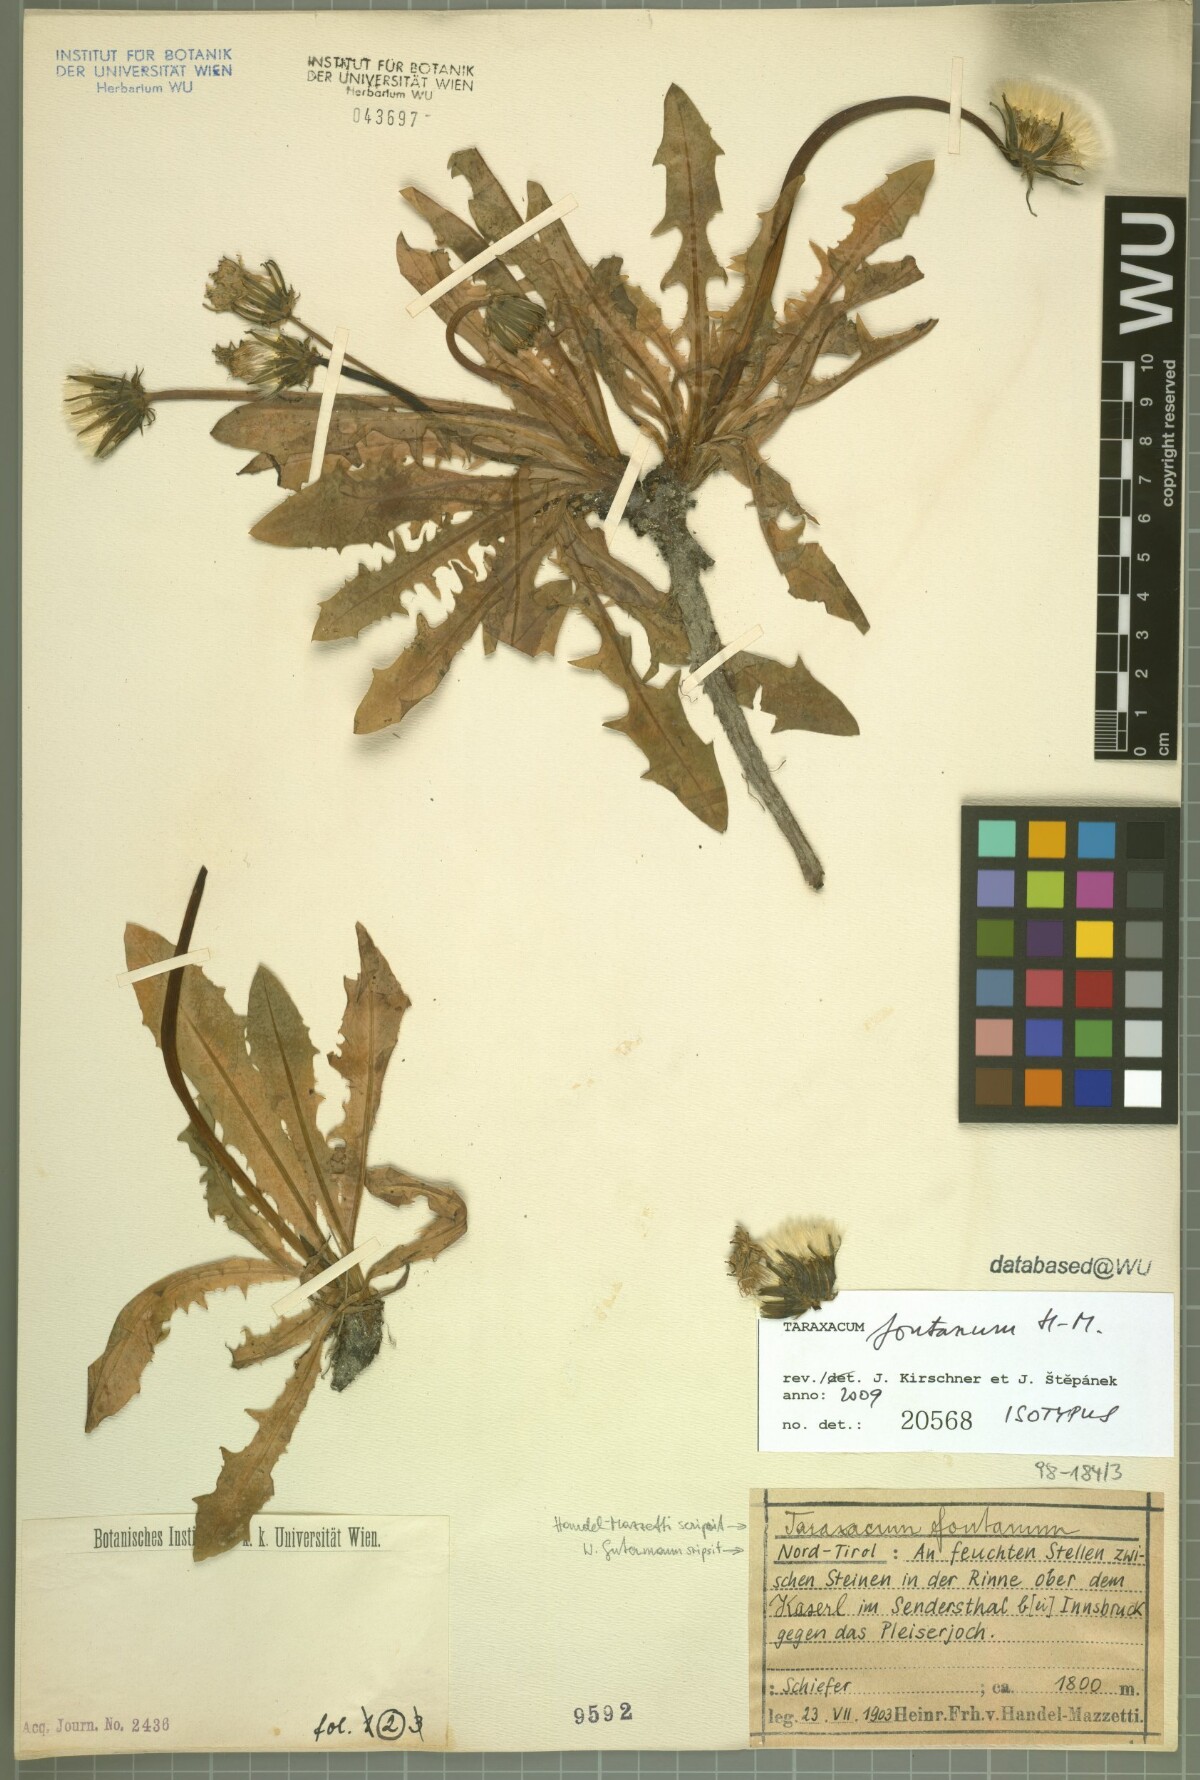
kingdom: Plantae
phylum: Tracheophyta
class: Magnoliopsida
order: Asterales
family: Asteraceae
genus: Taraxacum
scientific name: Taraxacum fontanum
